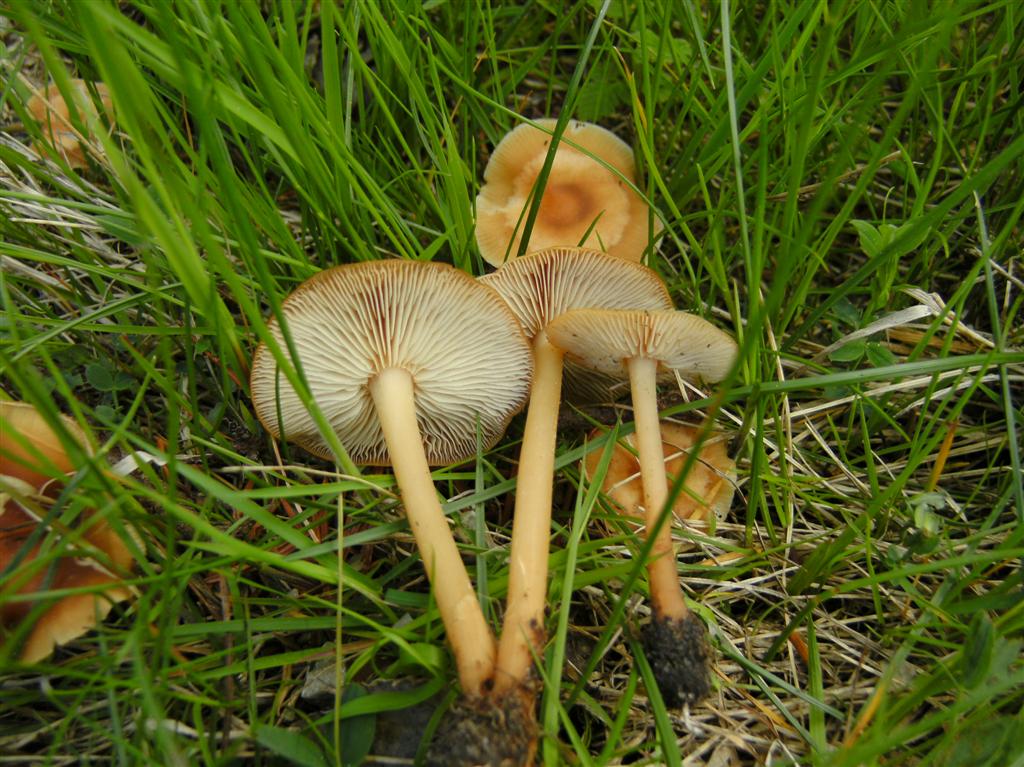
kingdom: Fungi
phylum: Basidiomycota
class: Agaricomycetes
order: Agaricales
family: Omphalotaceae
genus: Gymnopus
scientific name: Gymnopus aquosus
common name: bleg fladhat
